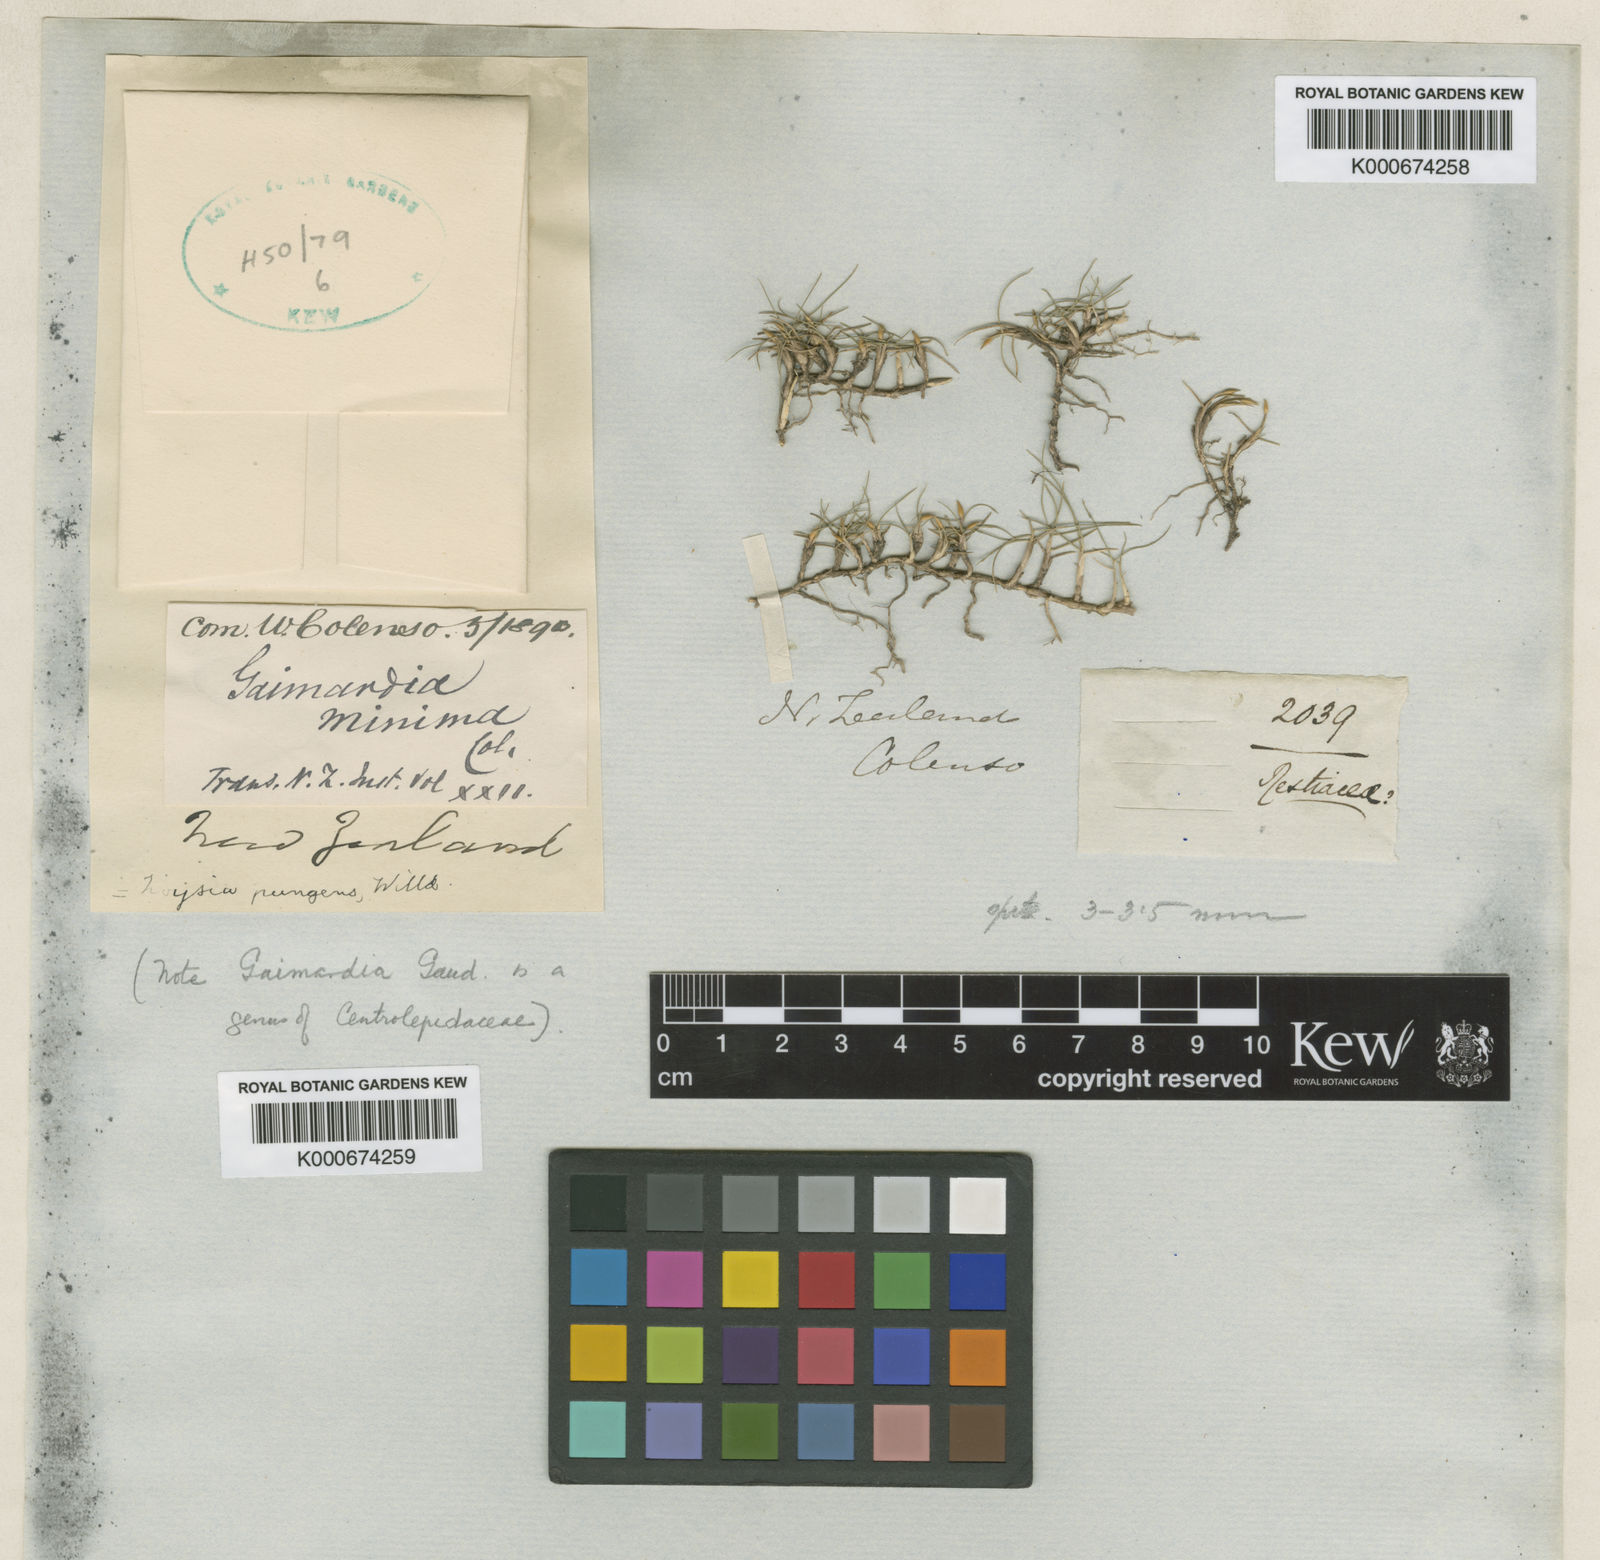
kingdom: Plantae
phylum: Tracheophyta
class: Liliopsida
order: Poales
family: Poaceae
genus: Zoysia
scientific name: Zoysia minima
